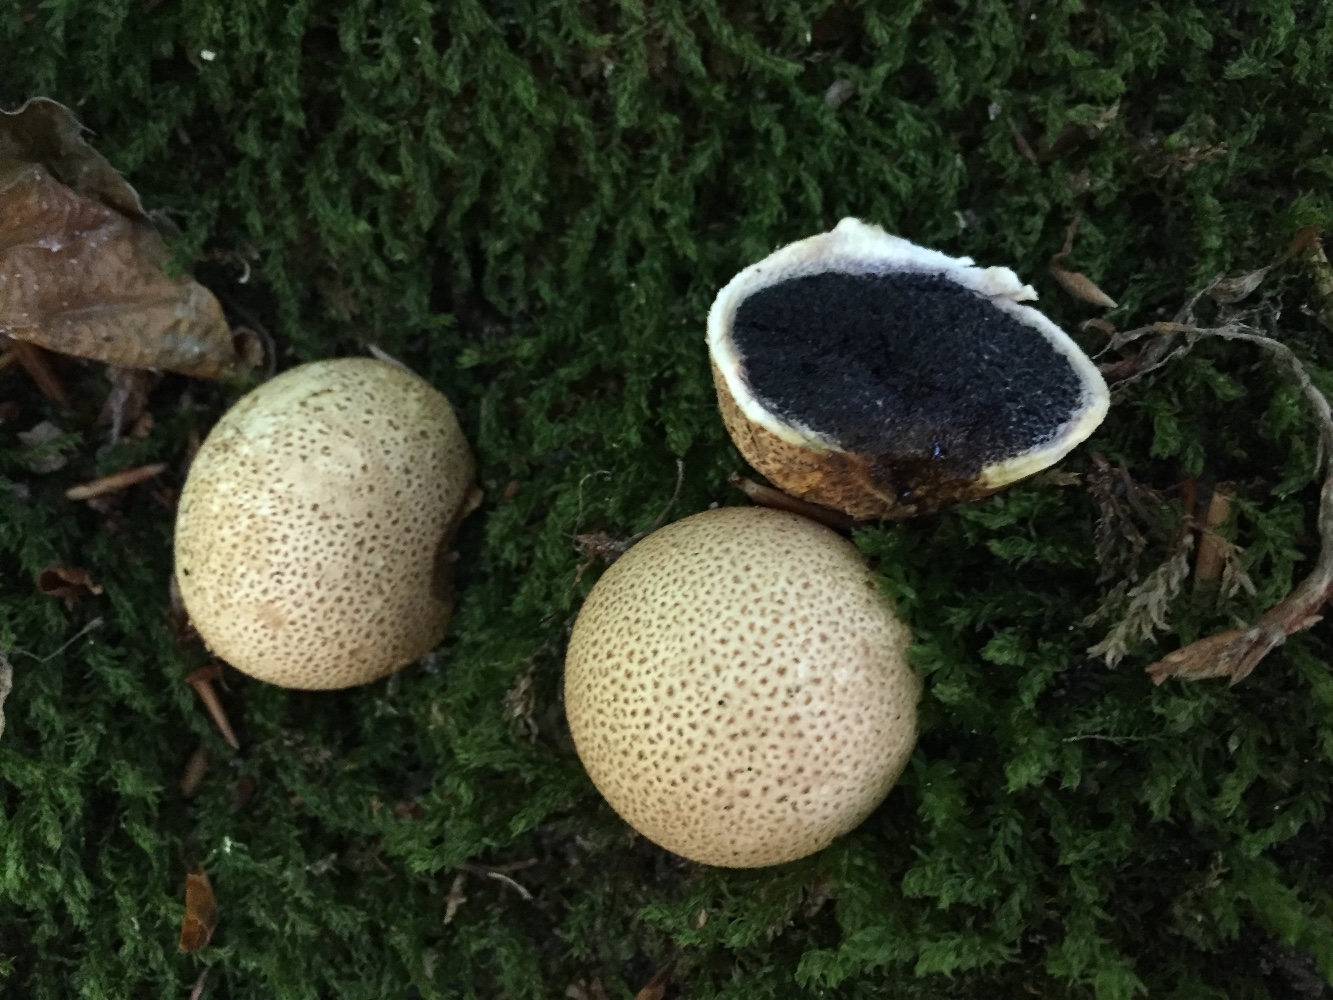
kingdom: Fungi
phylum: Basidiomycota
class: Agaricomycetes
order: Boletales
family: Sclerodermataceae
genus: Scleroderma
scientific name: Scleroderma citrinum
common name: almindelig bruskbold
